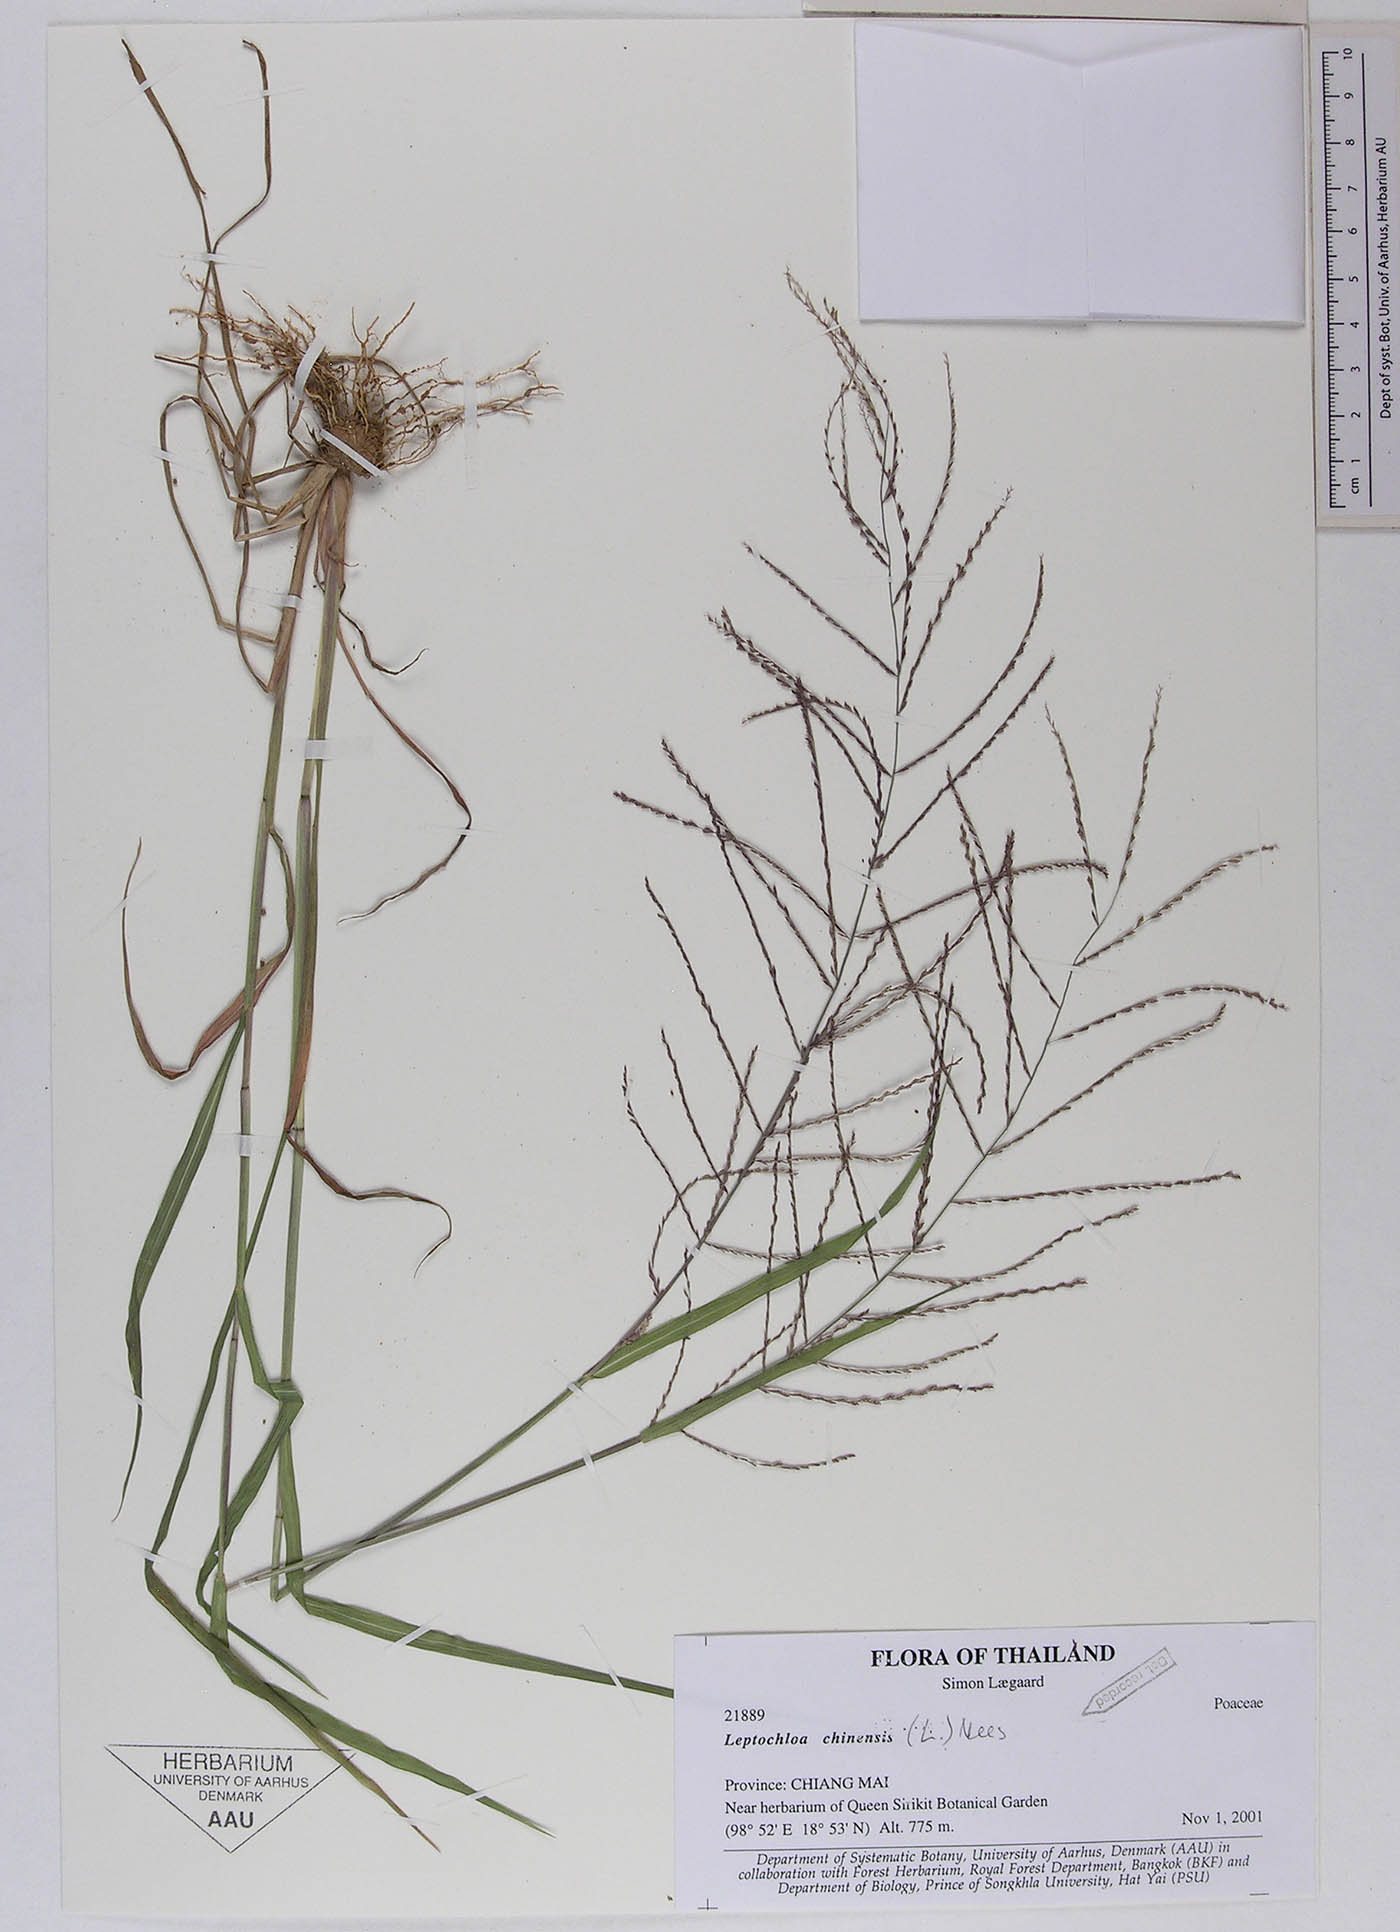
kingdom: Plantae
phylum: Tracheophyta
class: Liliopsida
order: Poales
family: Poaceae
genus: Leptochloa
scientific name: Leptochloa chinensis
